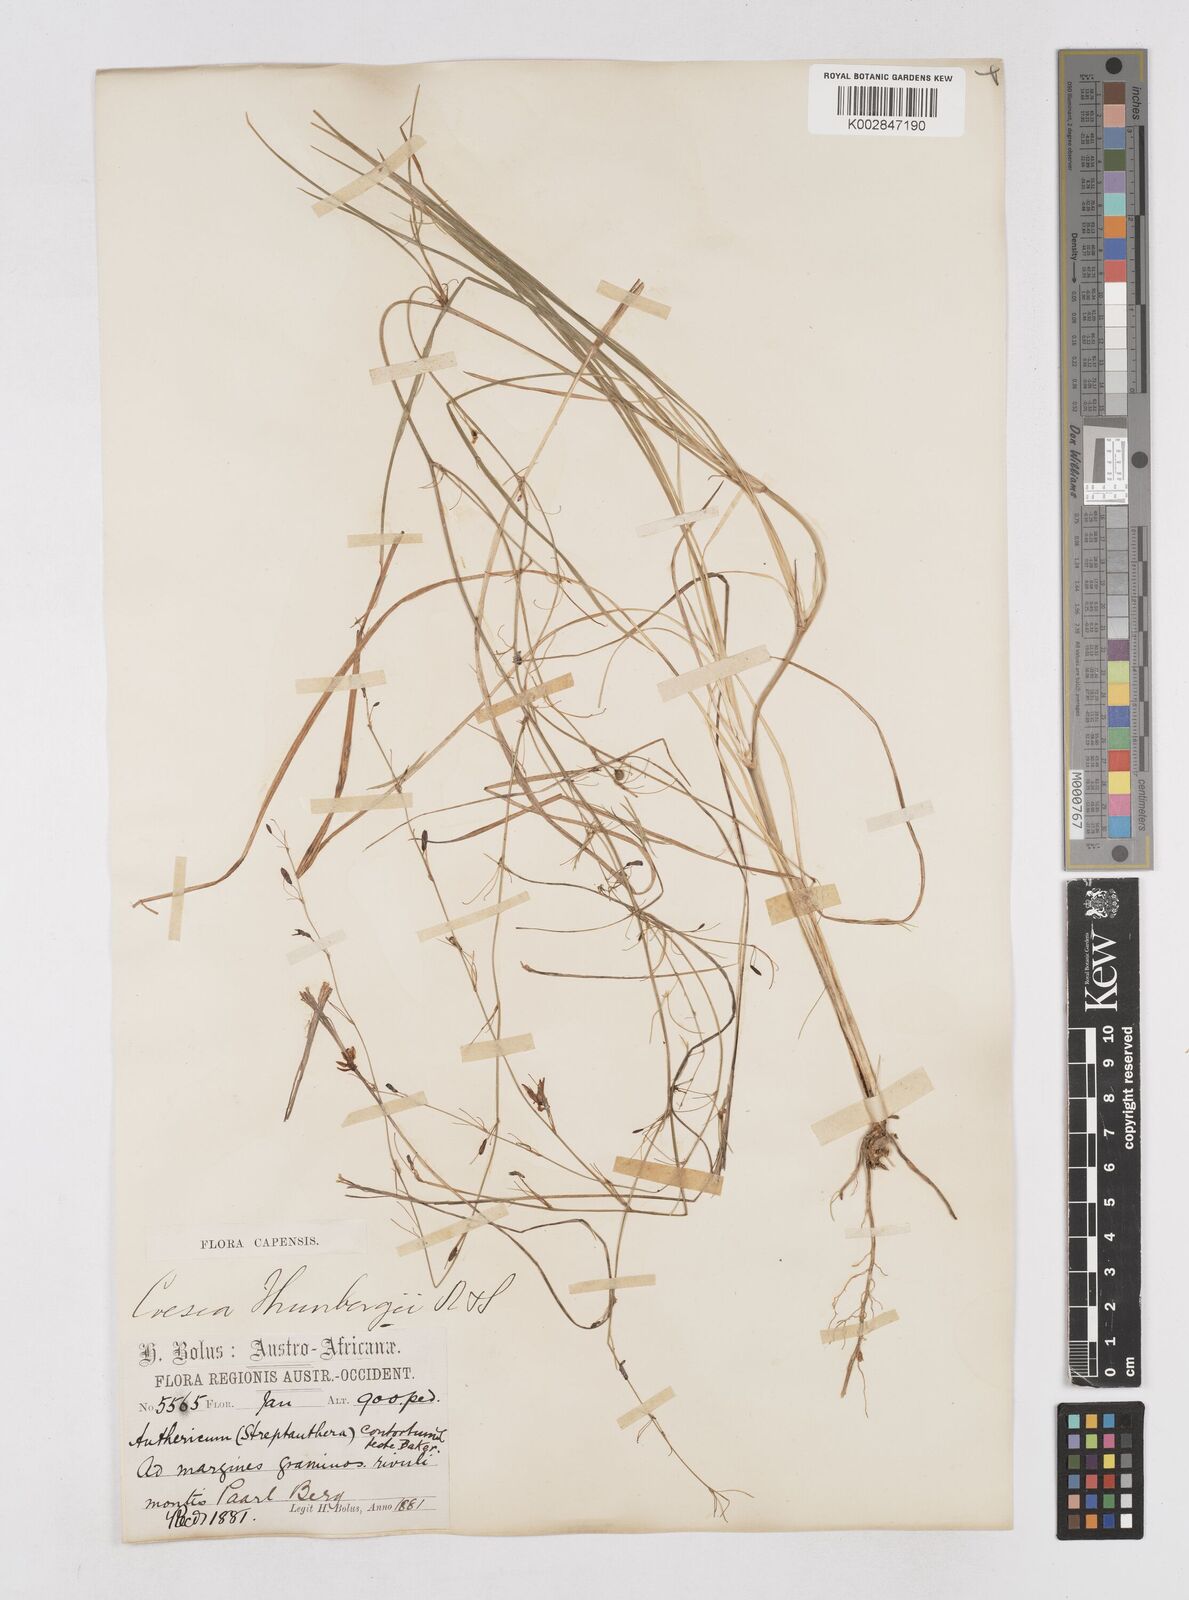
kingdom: Plantae
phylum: Tracheophyta
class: Liliopsida
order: Asparagales
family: Asphodelaceae
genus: Caesia
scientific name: Caesia contorta
